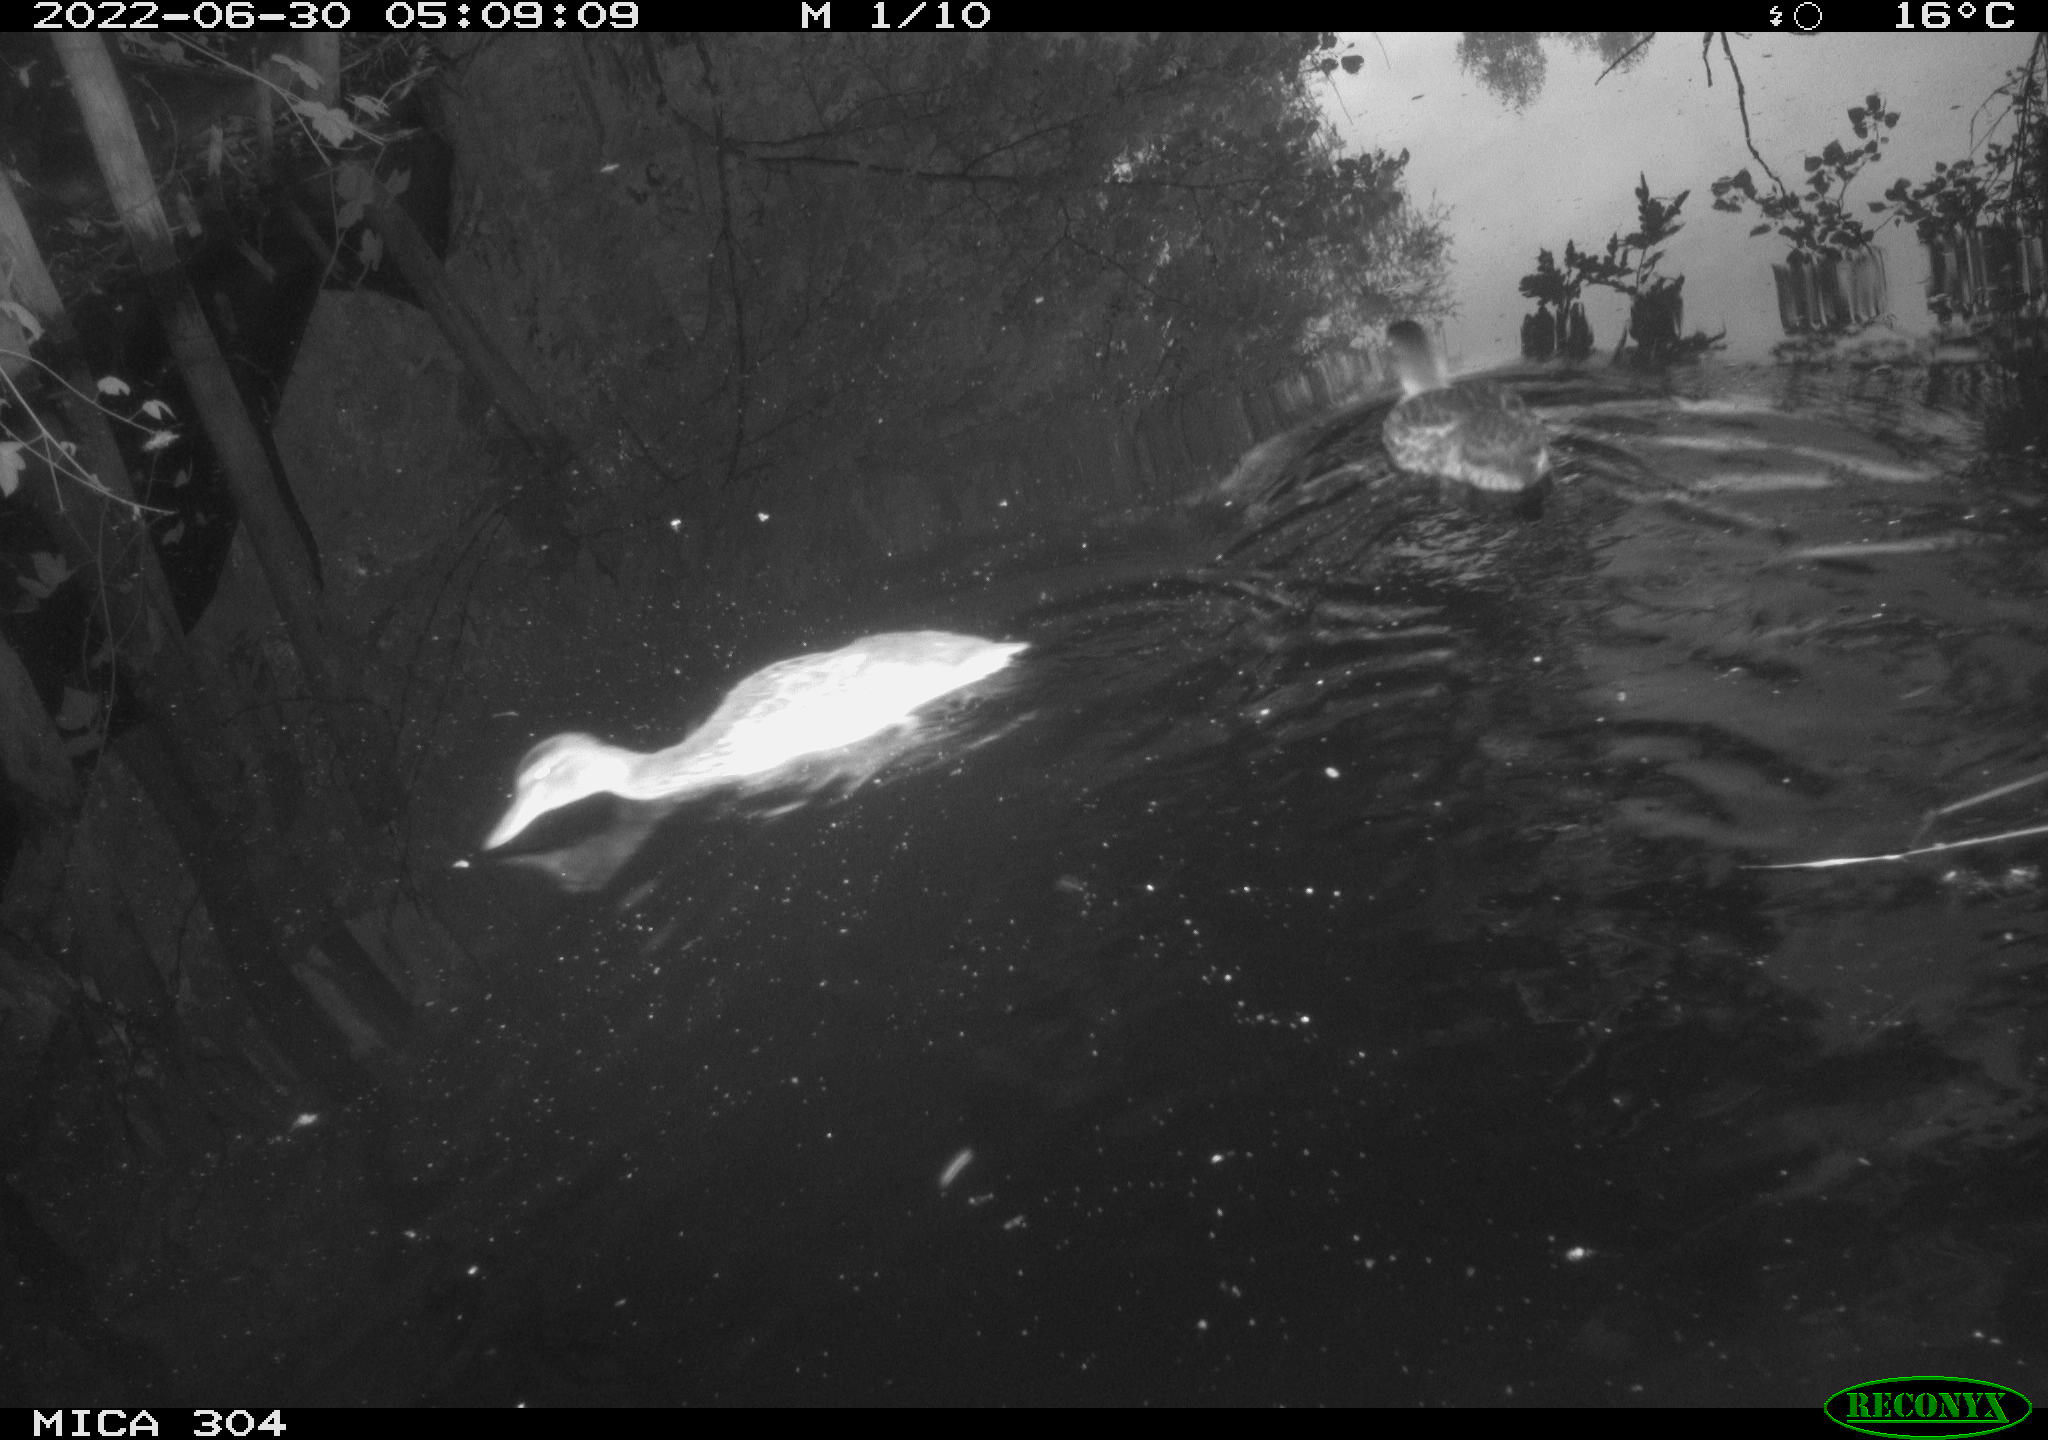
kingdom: Animalia
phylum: Chordata
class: Aves
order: Anseriformes
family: Anatidae
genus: Mareca
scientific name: Mareca strepera
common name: Gadwall
